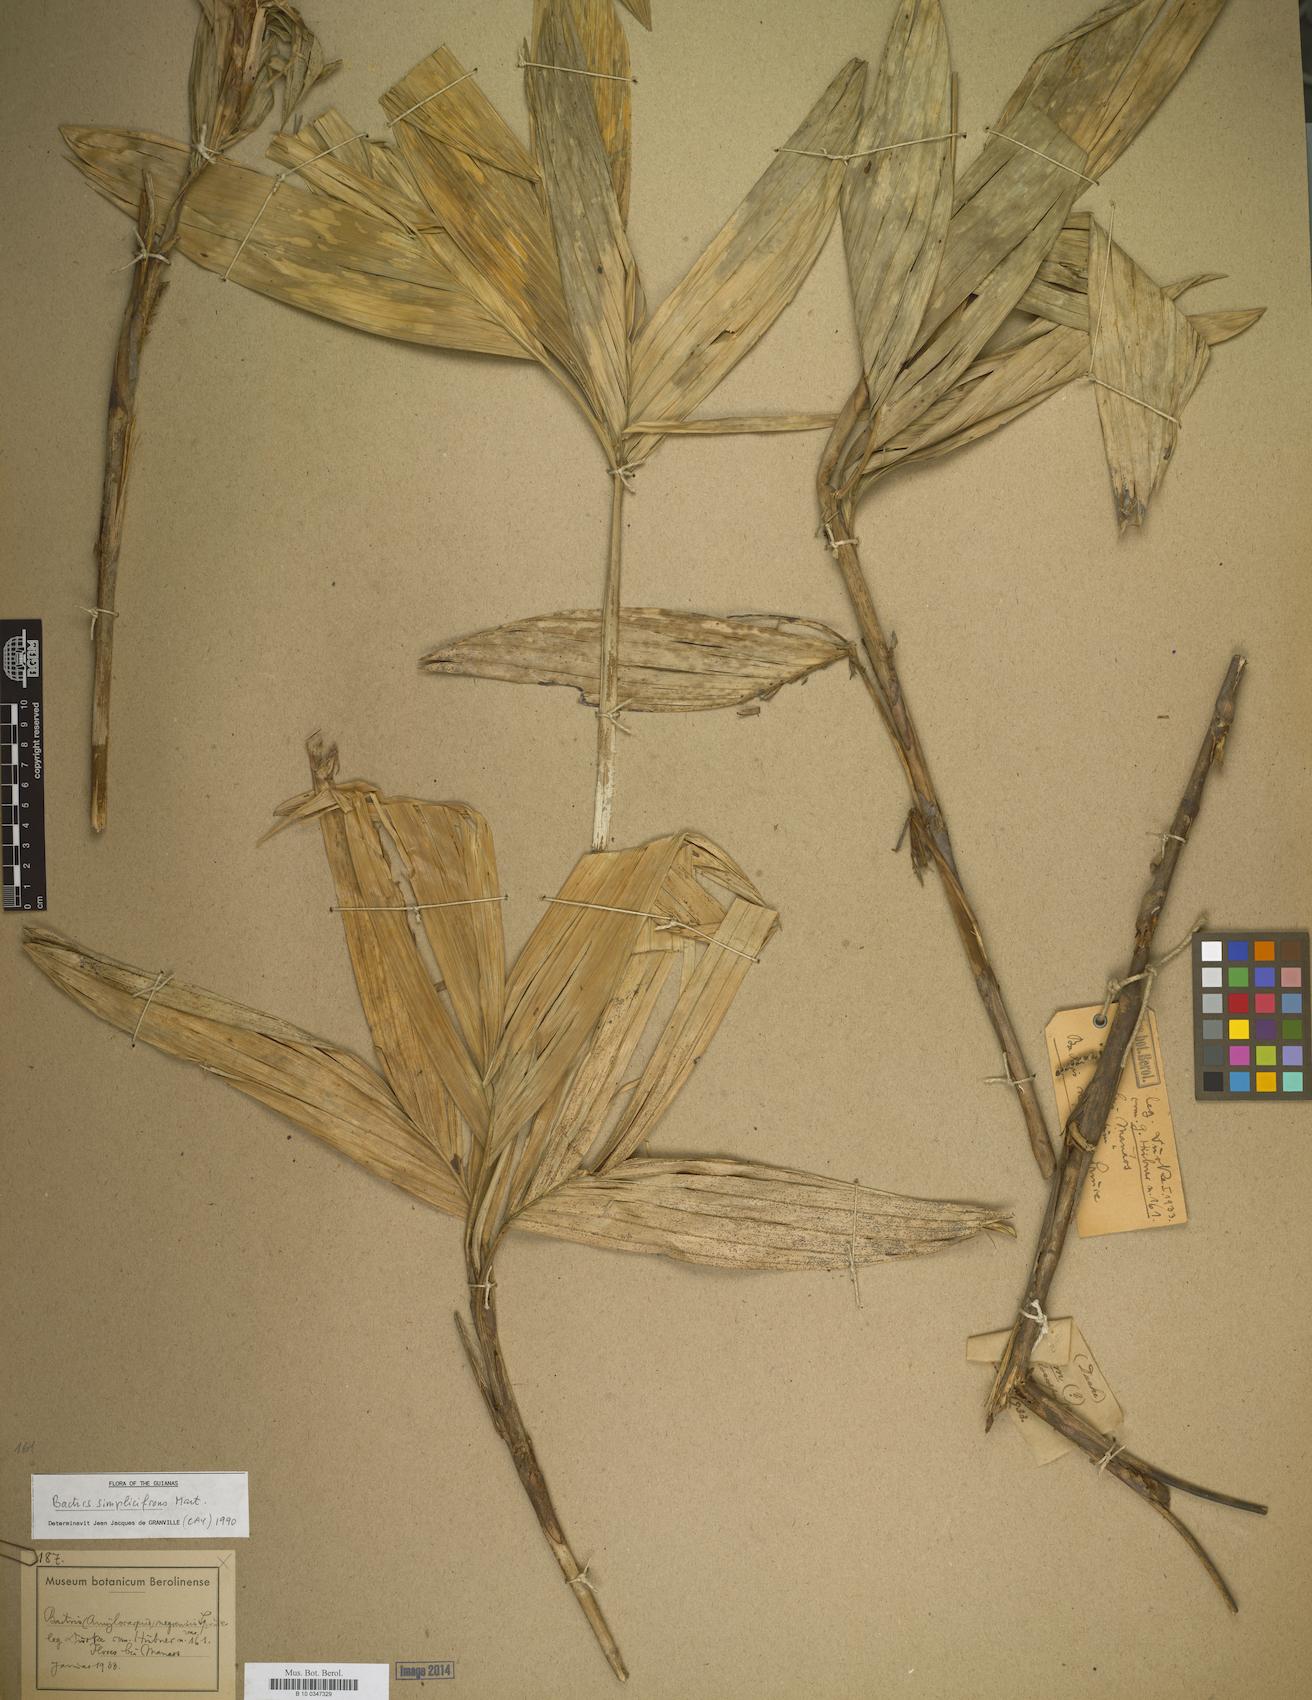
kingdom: Plantae
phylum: Tracheophyta
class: Liliopsida
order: Arecales
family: Arecaceae
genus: Bactris
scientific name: Bactris simplicifrons
